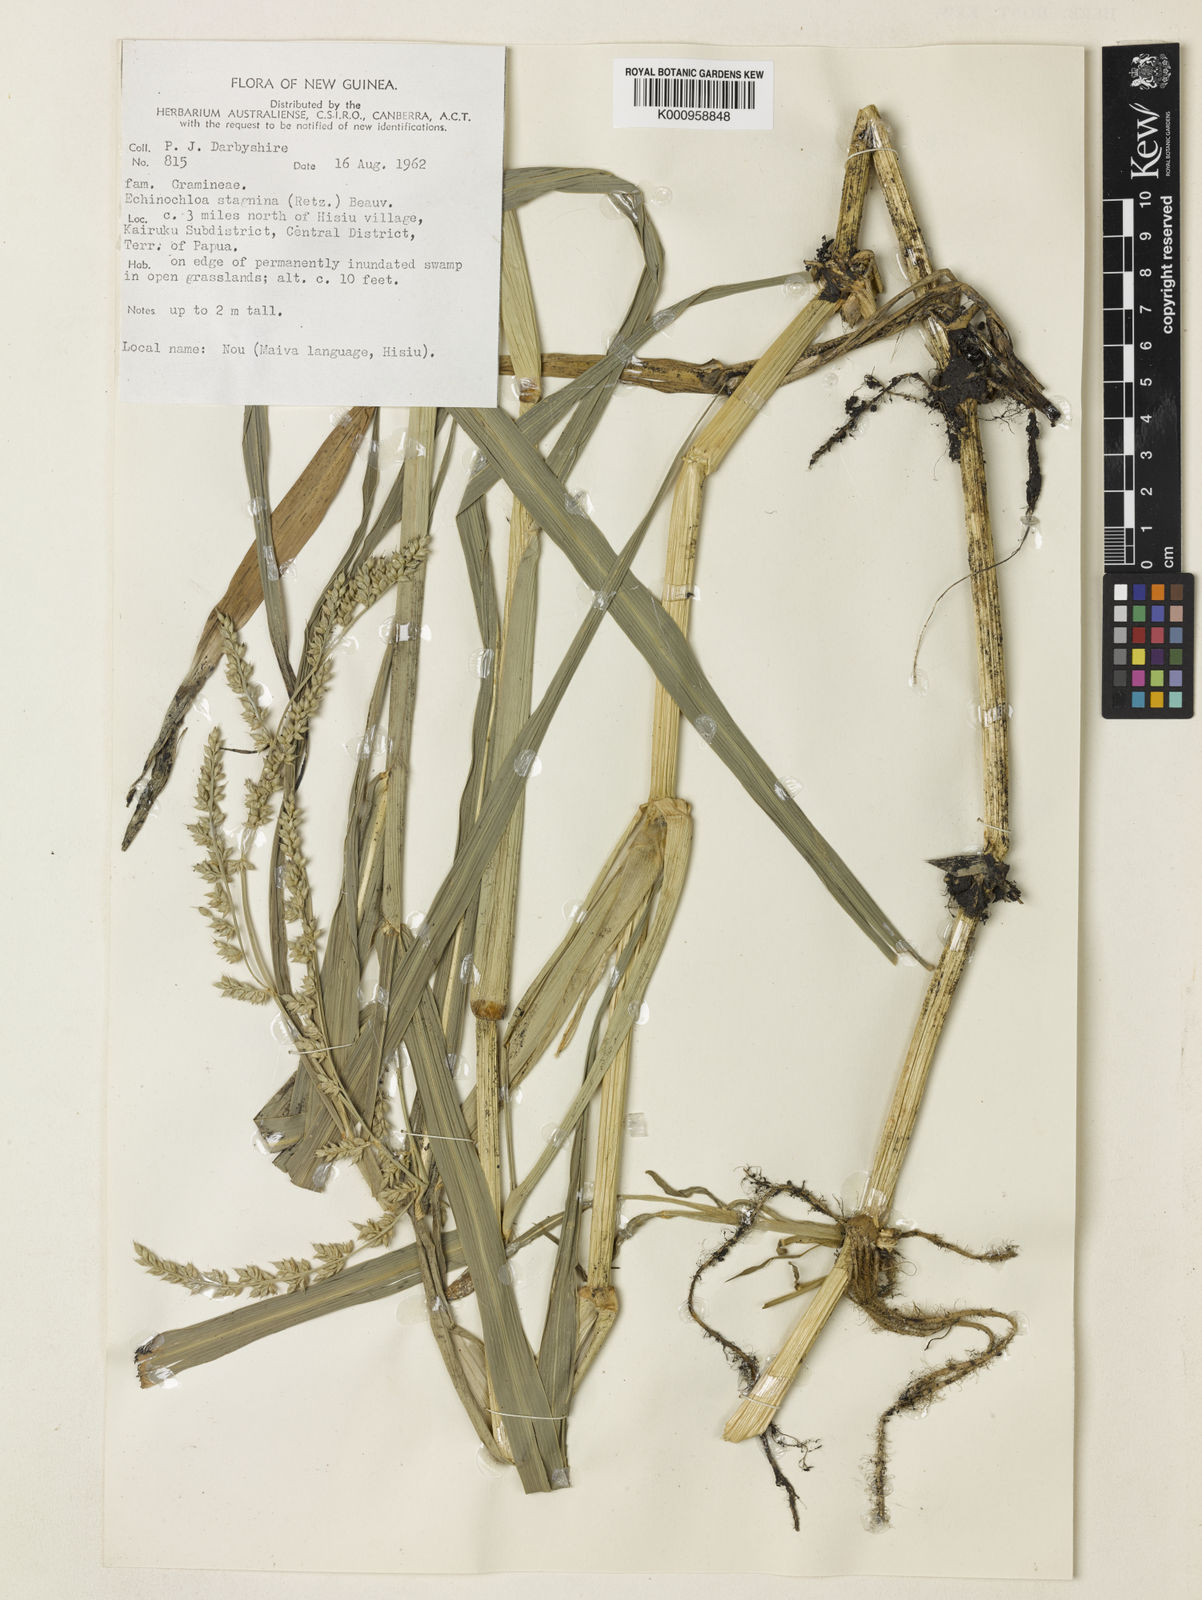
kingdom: Plantae
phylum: Tracheophyta
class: Liliopsida
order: Poales
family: Poaceae
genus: Echinochloa
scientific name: Echinochloa praestans
